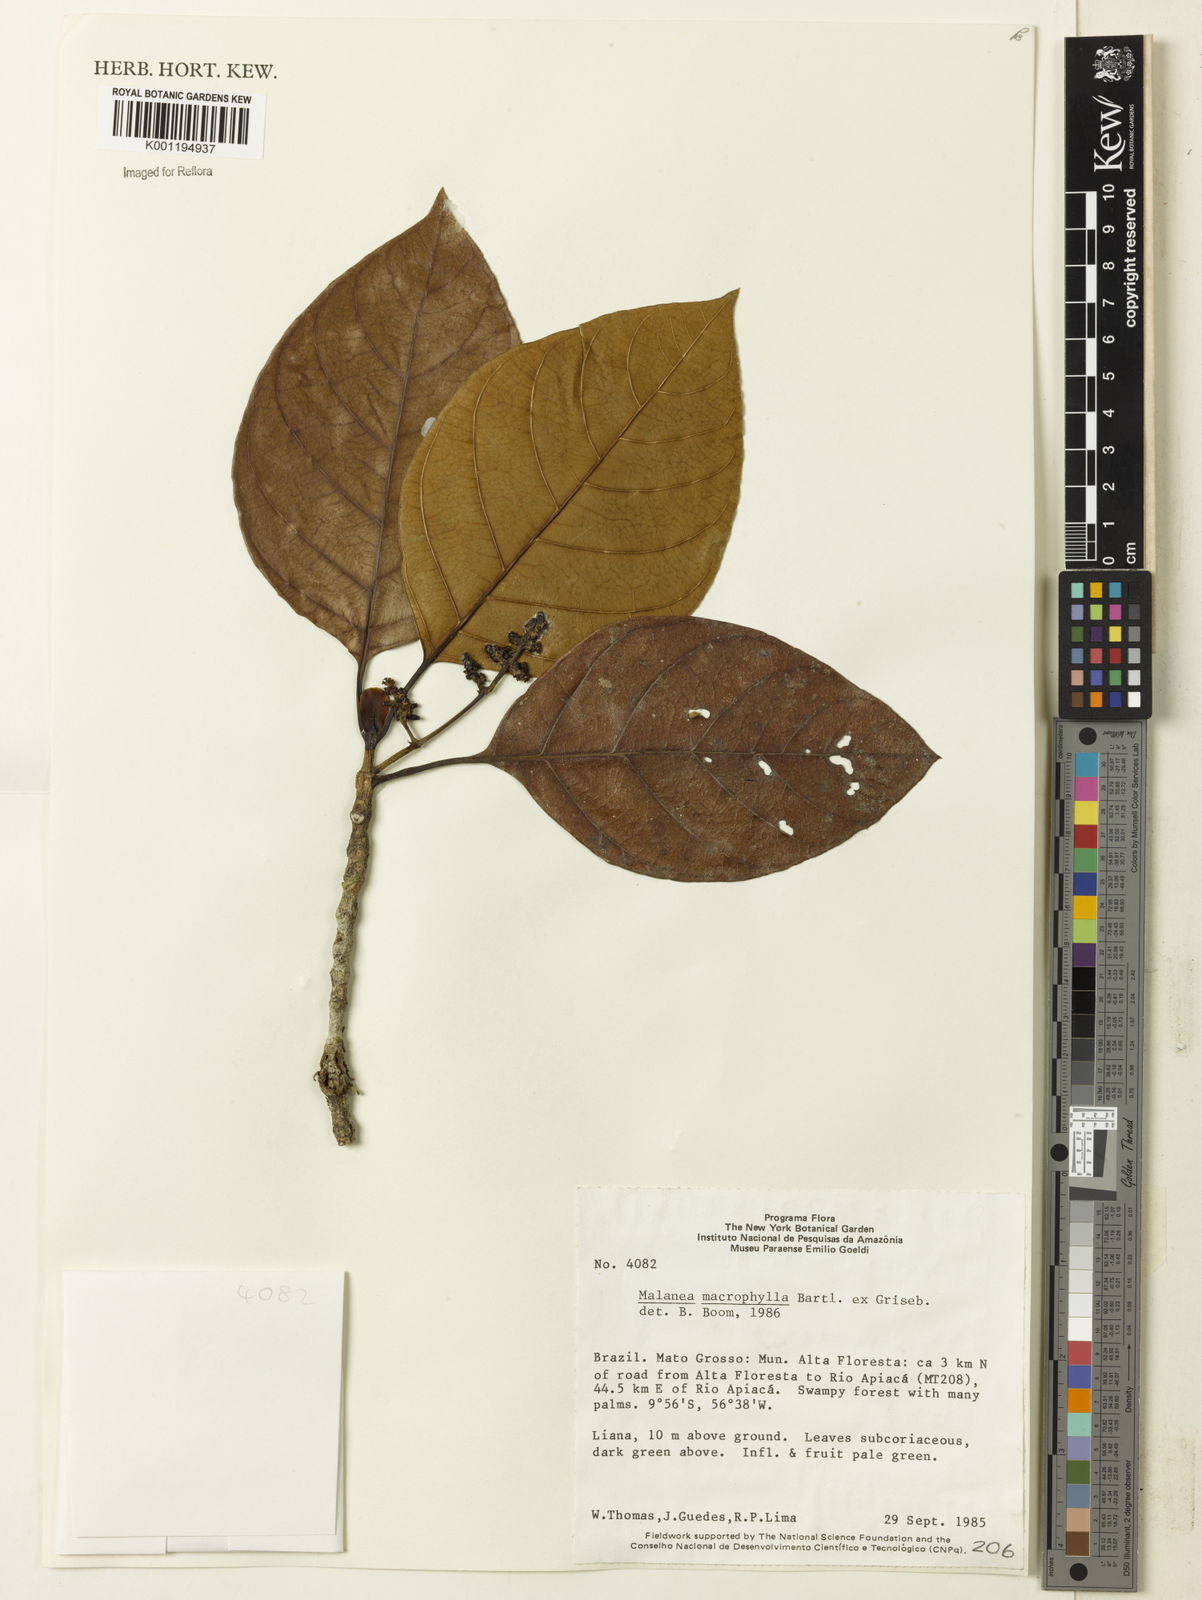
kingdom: Plantae
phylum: Tracheophyta
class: Magnoliopsida
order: Gentianales
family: Rubiaceae
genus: Malanea
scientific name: Malanea glabra
